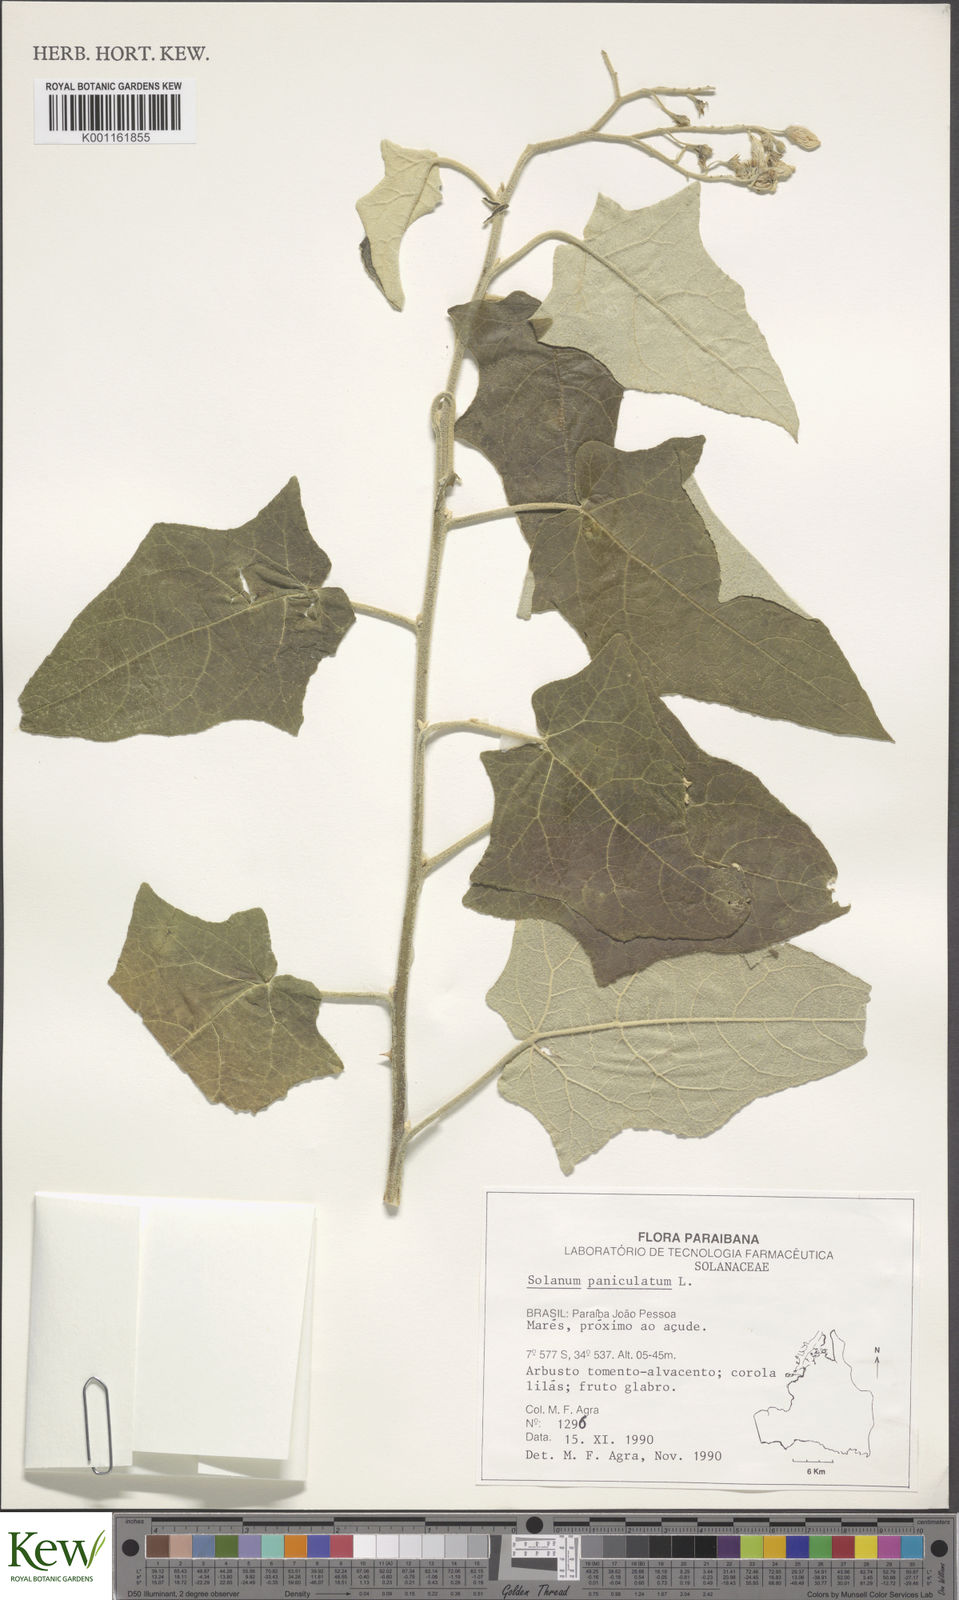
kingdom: Plantae
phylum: Tracheophyta
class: Magnoliopsida
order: Solanales
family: Solanaceae
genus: Solanum
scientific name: Solanum paniculatum
